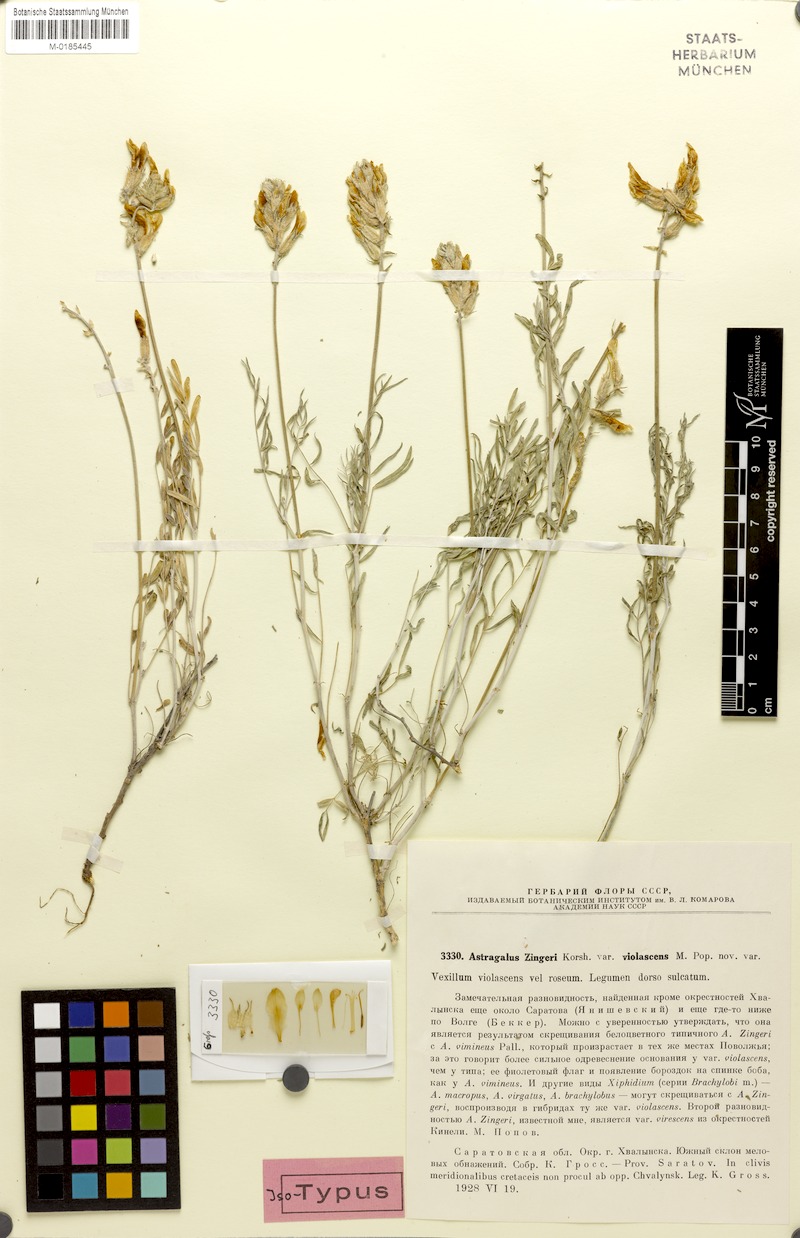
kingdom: Plantae
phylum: Tracheophyta
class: Magnoliopsida
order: Fabales
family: Fabaceae
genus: Astragalus
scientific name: Astragalus zingeri
